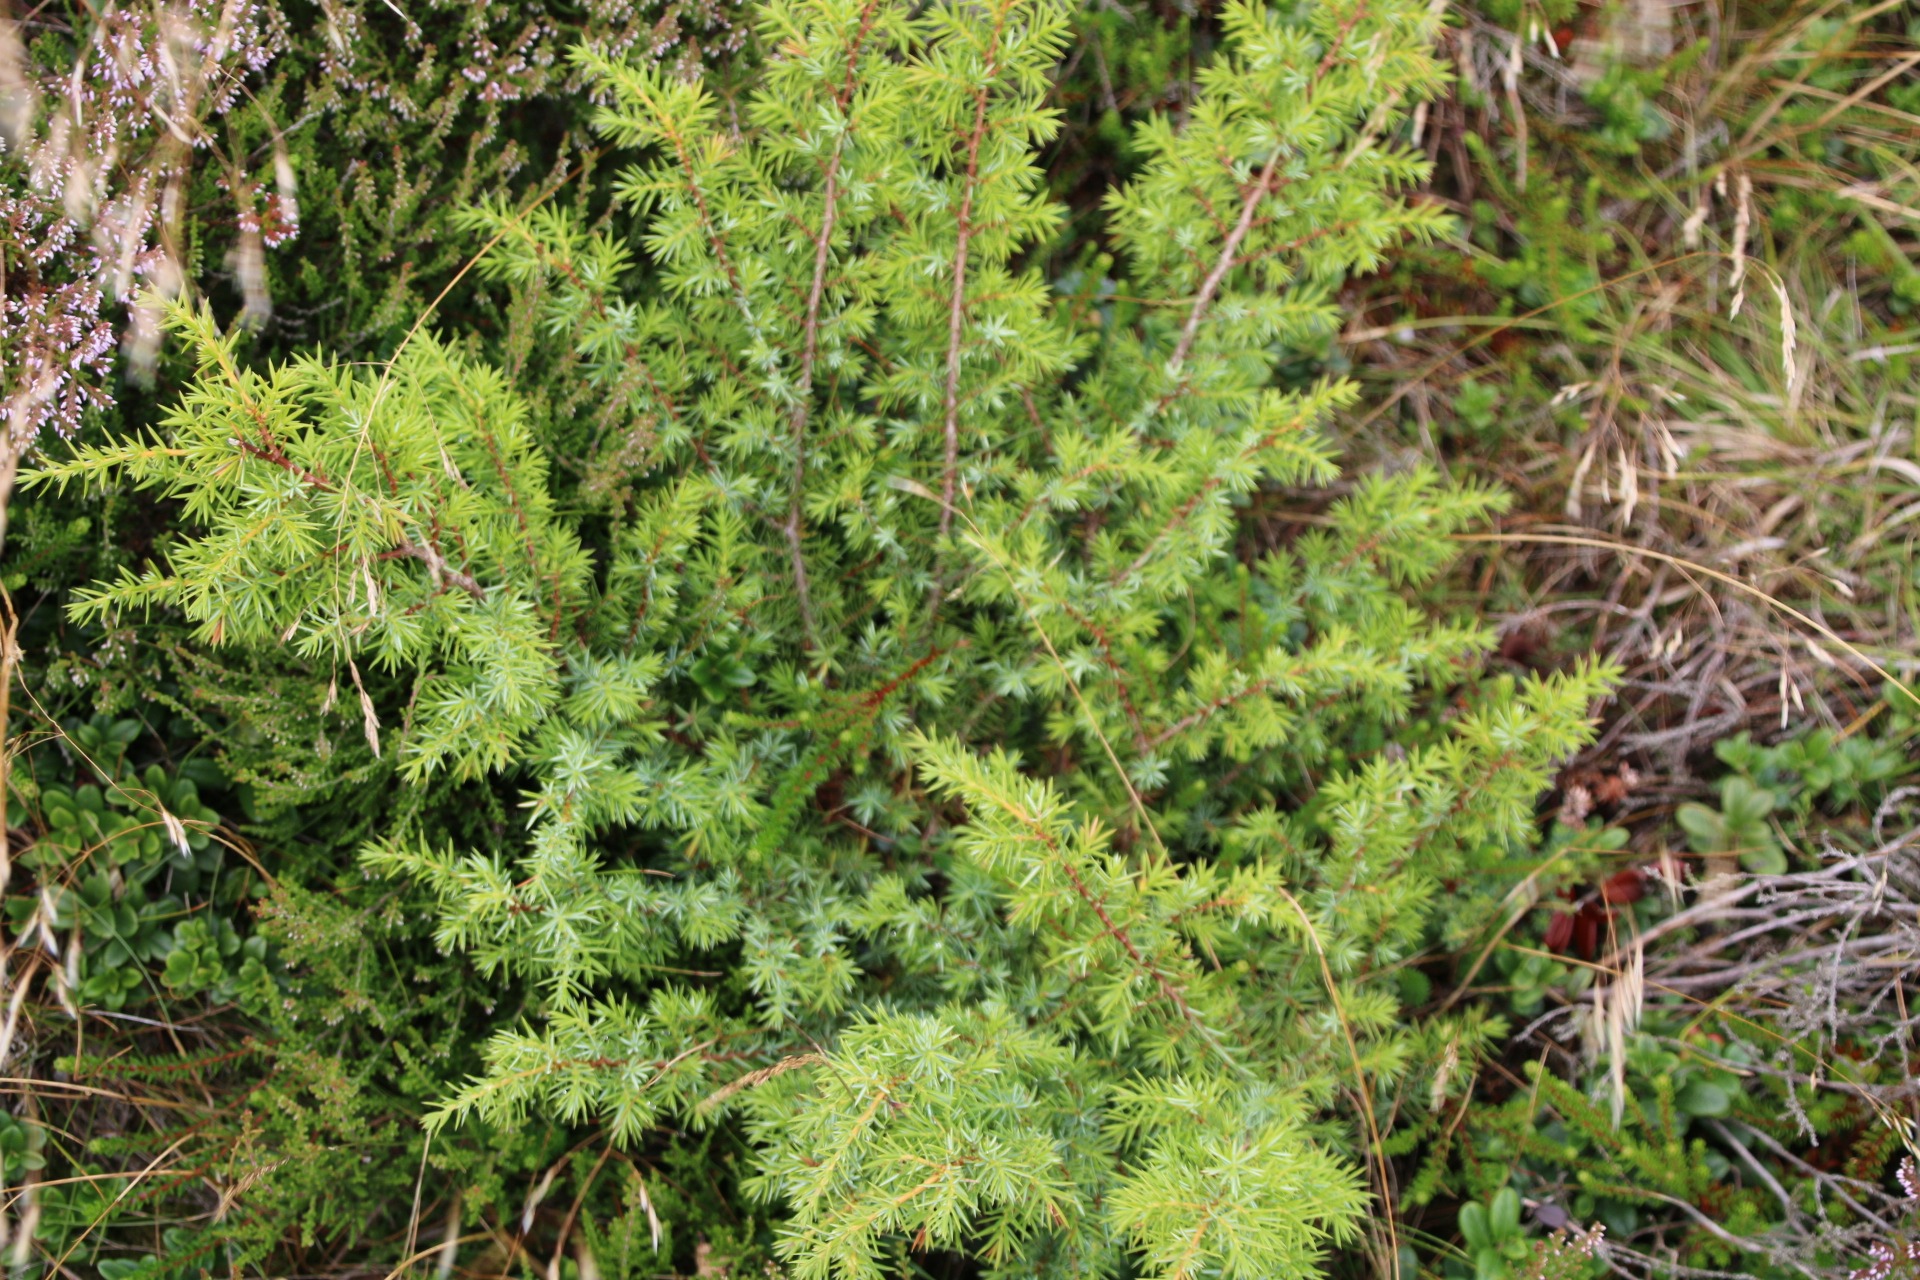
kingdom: Plantae
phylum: Tracheophyta
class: Pinopsida
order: Pinales
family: Cupressaceae
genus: Juniperus
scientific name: Juniperus communis
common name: Almindelig ene
